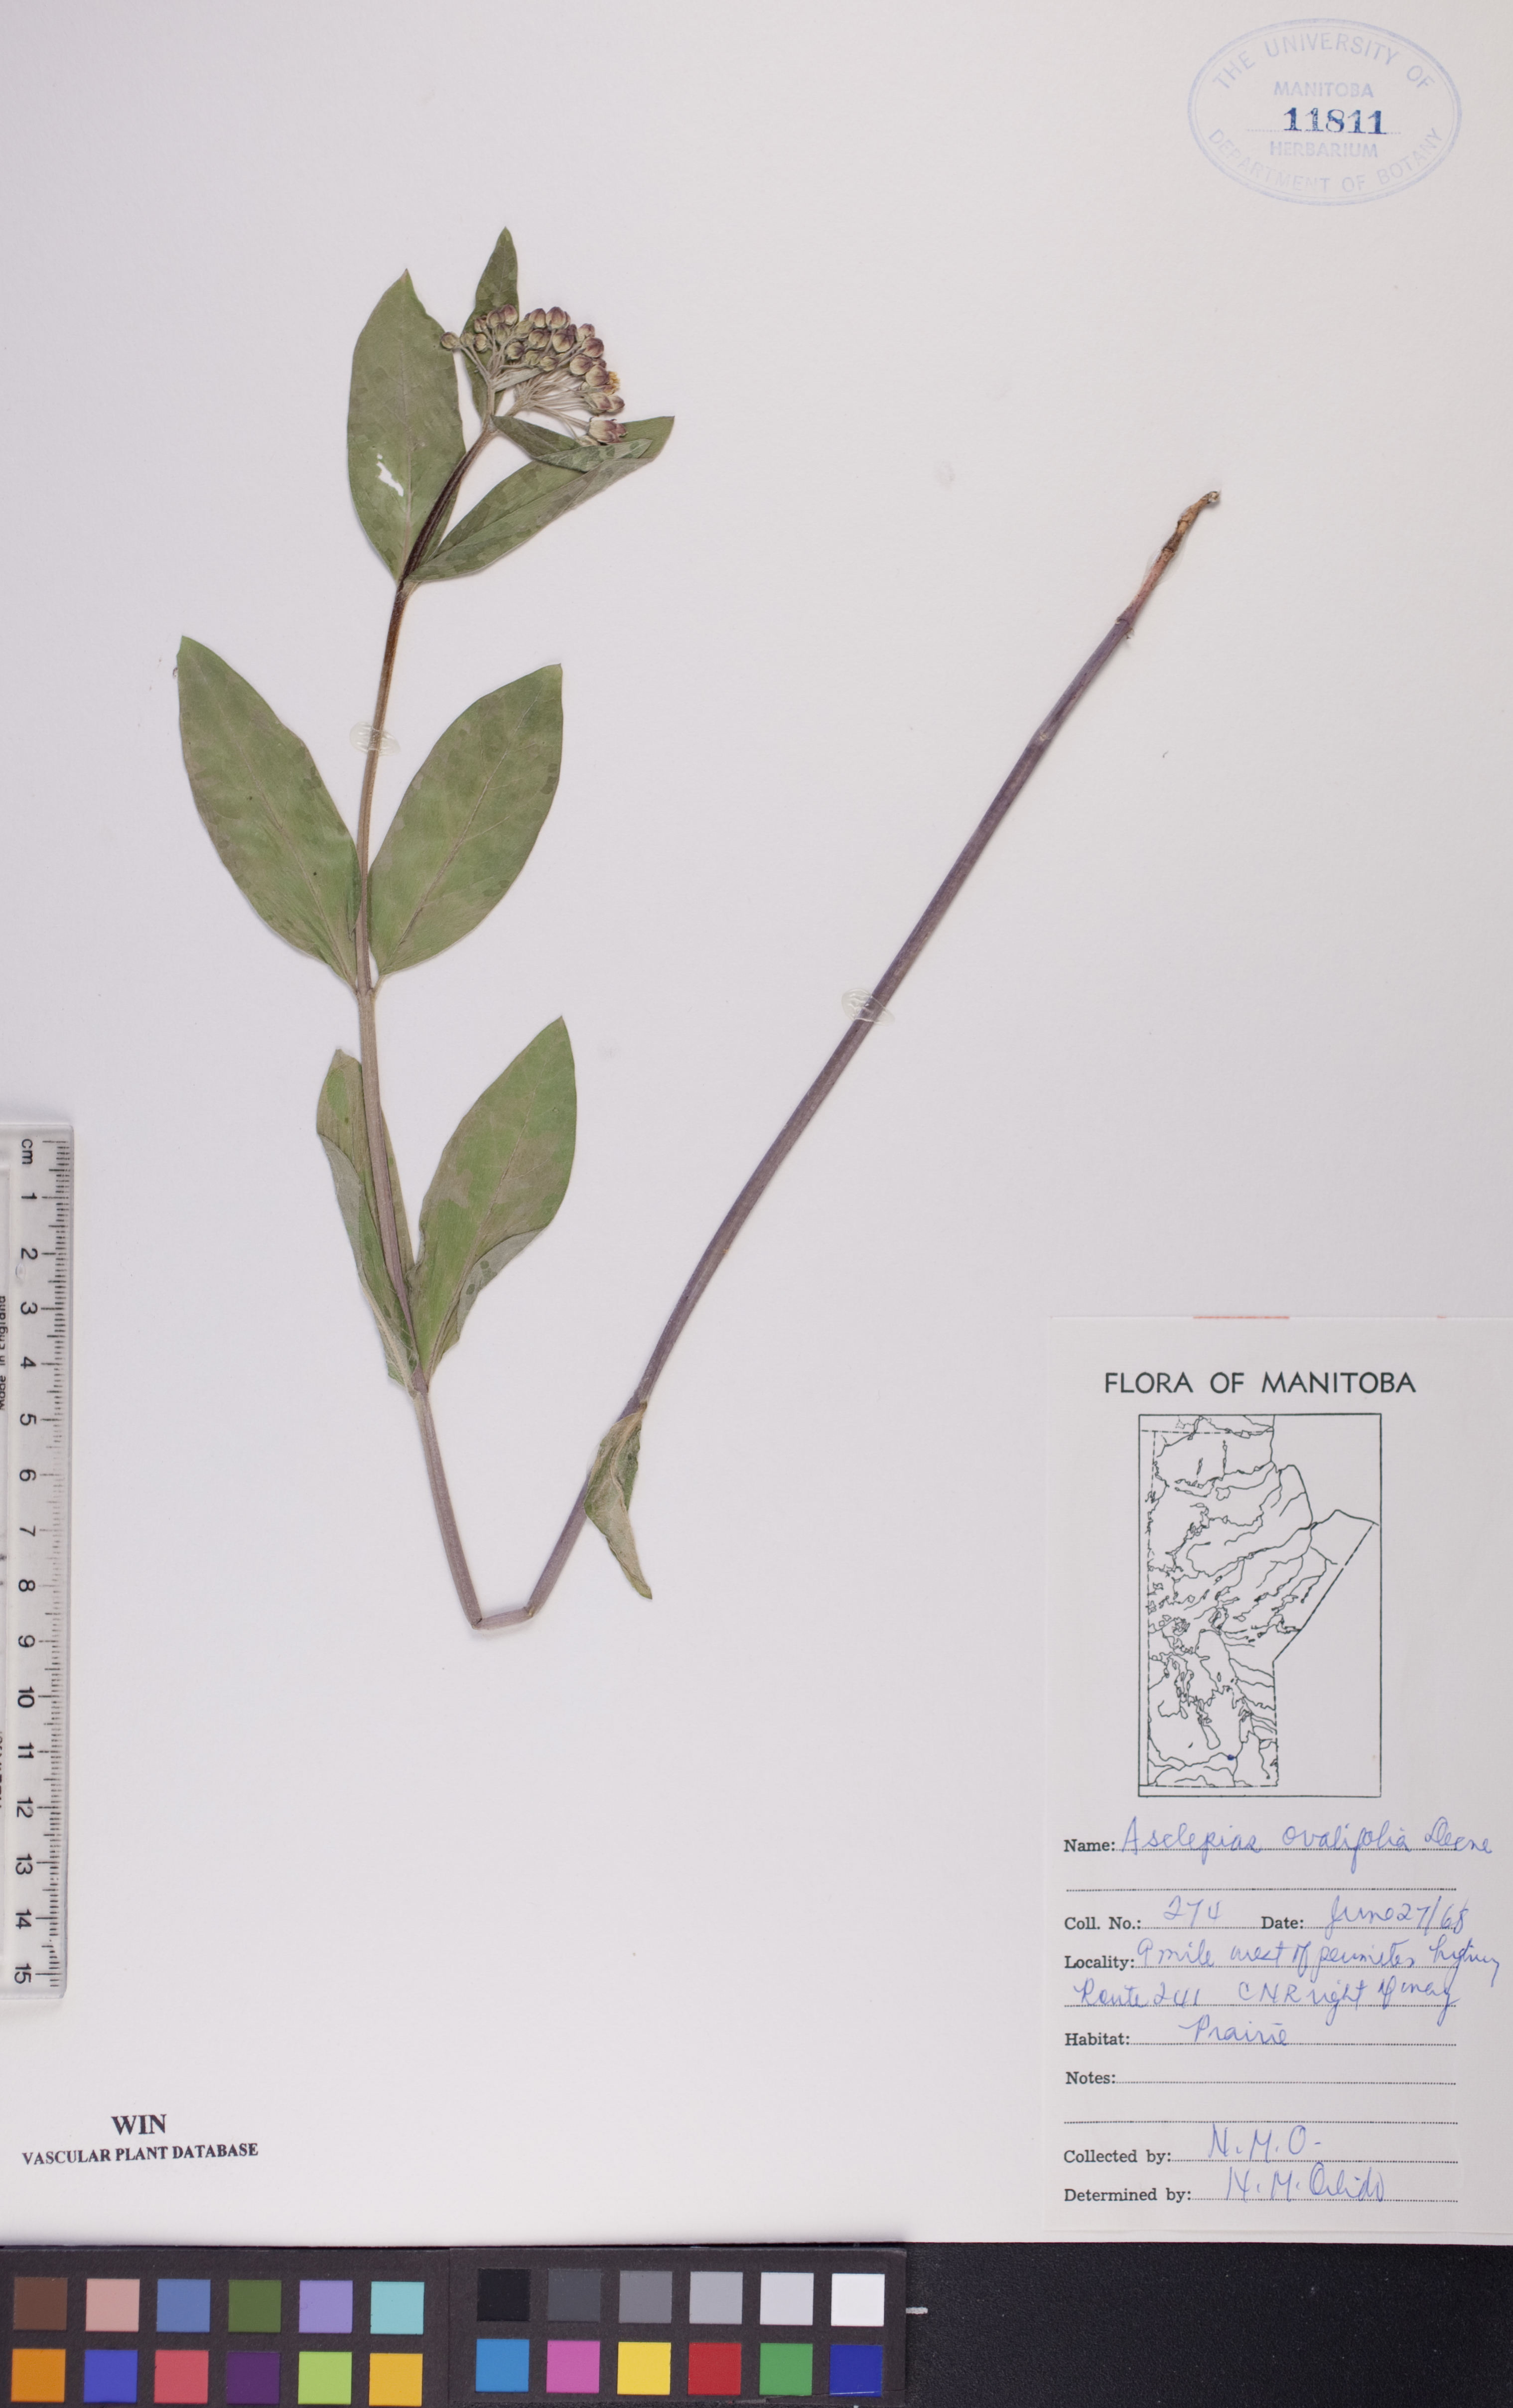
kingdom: Plantae
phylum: Tracheophyta
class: Magnoliopsida
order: Gentianales
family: Apocynaceae
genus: Asclepias
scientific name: Asclepias ovalifolia
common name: Dwarf milkweed
